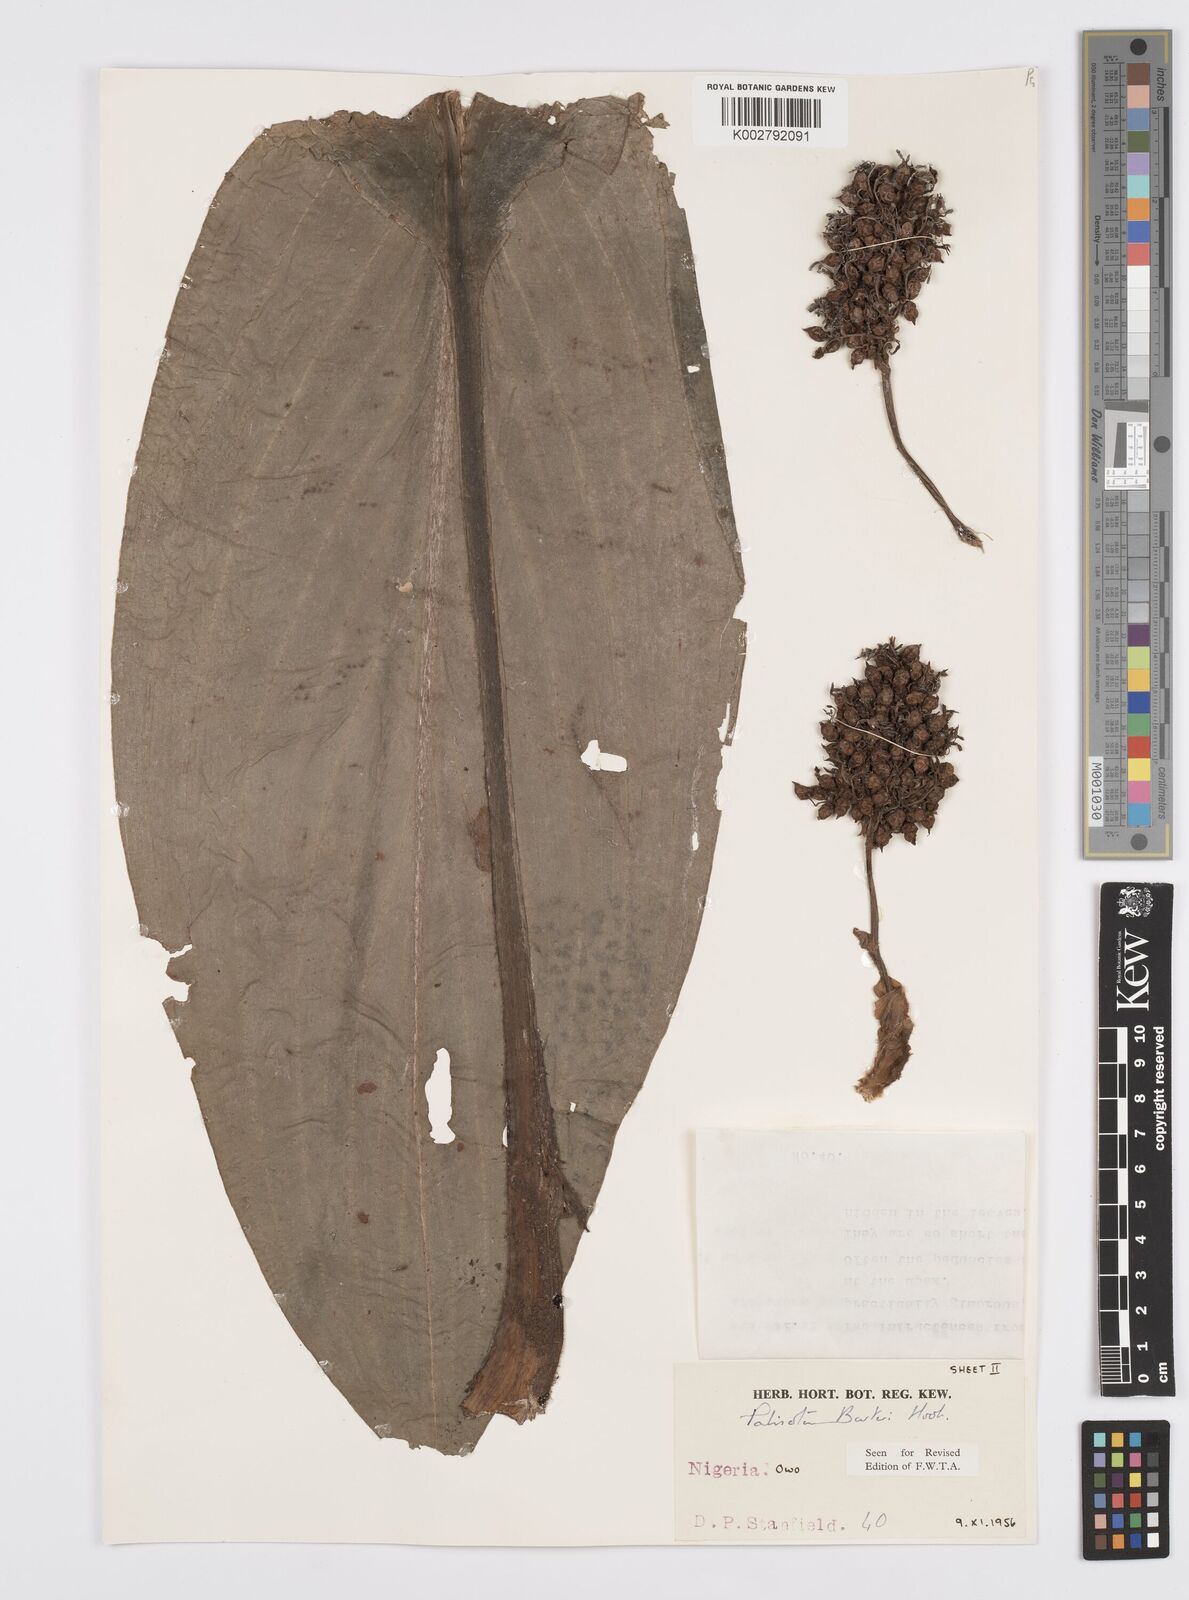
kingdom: Plantae
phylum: Tracheophyta
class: Liliopsida
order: Commelinales
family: Commelinaceae
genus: Palisota
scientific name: Palisota barteri
